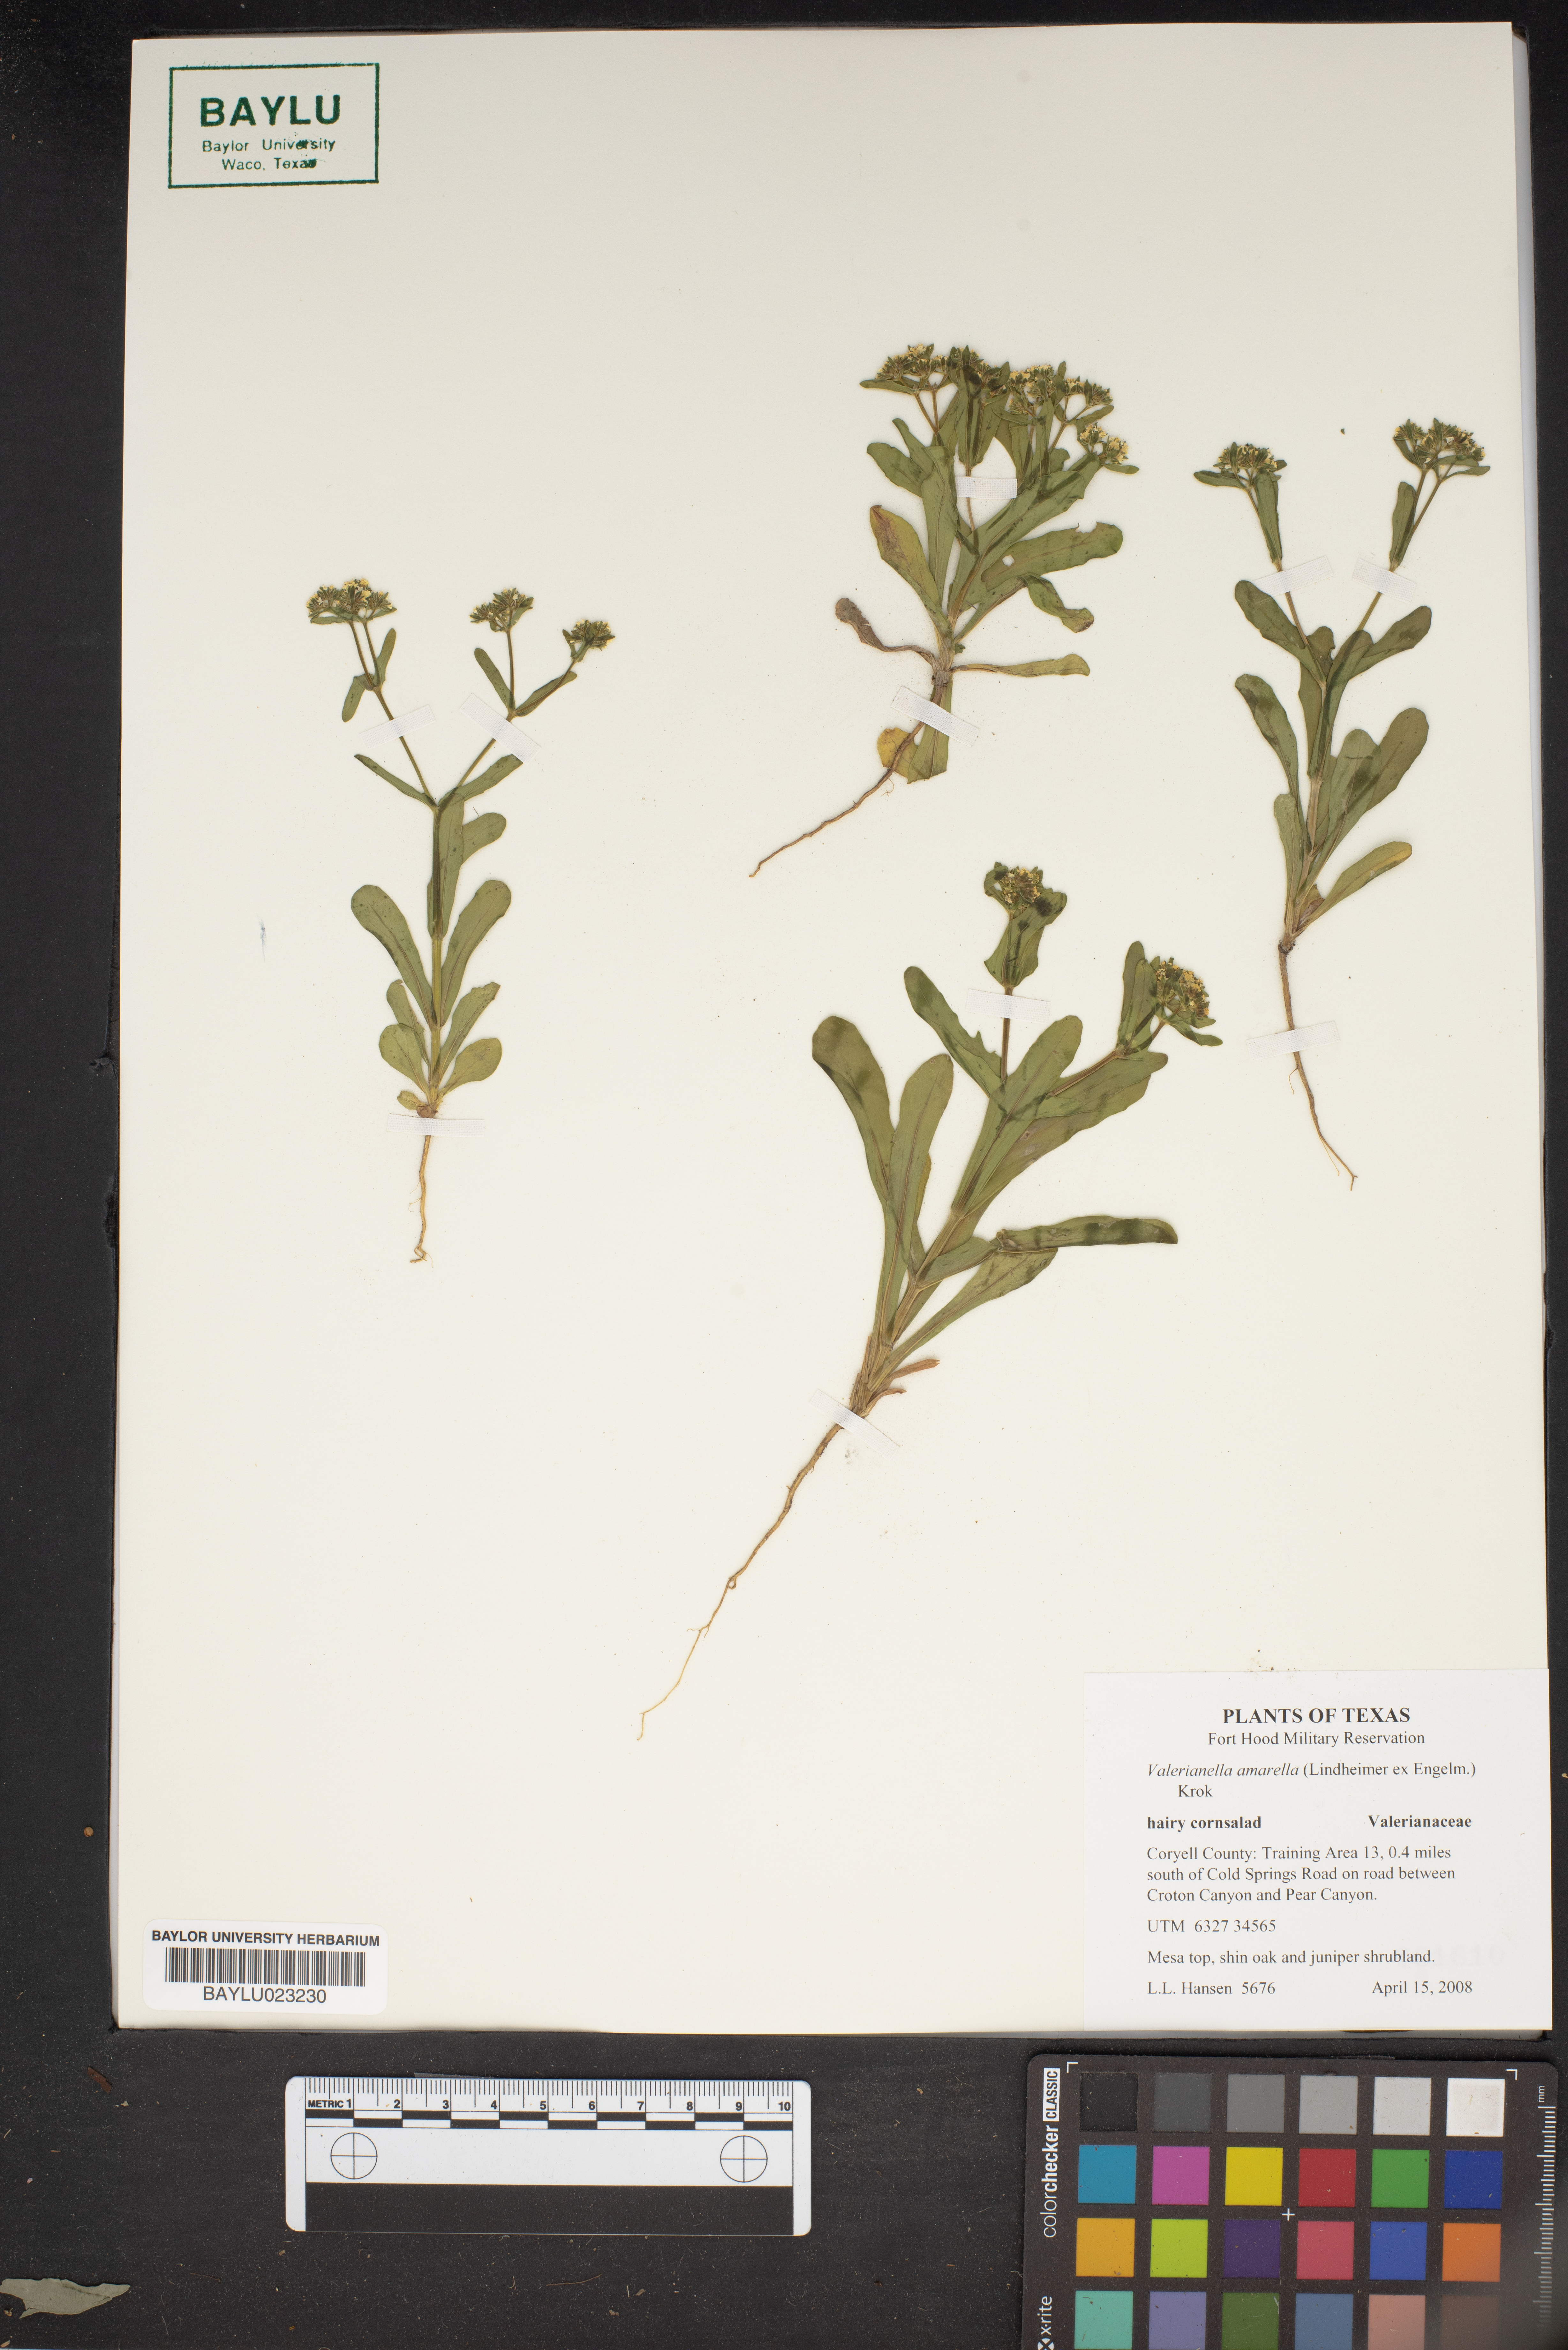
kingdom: Plantae
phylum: Tracheophyta
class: Magnoliopsida
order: Dipsacales
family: Caprifoliaceae
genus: Valerianella
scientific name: Valerianella amarella
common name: Hariy cornsalad
